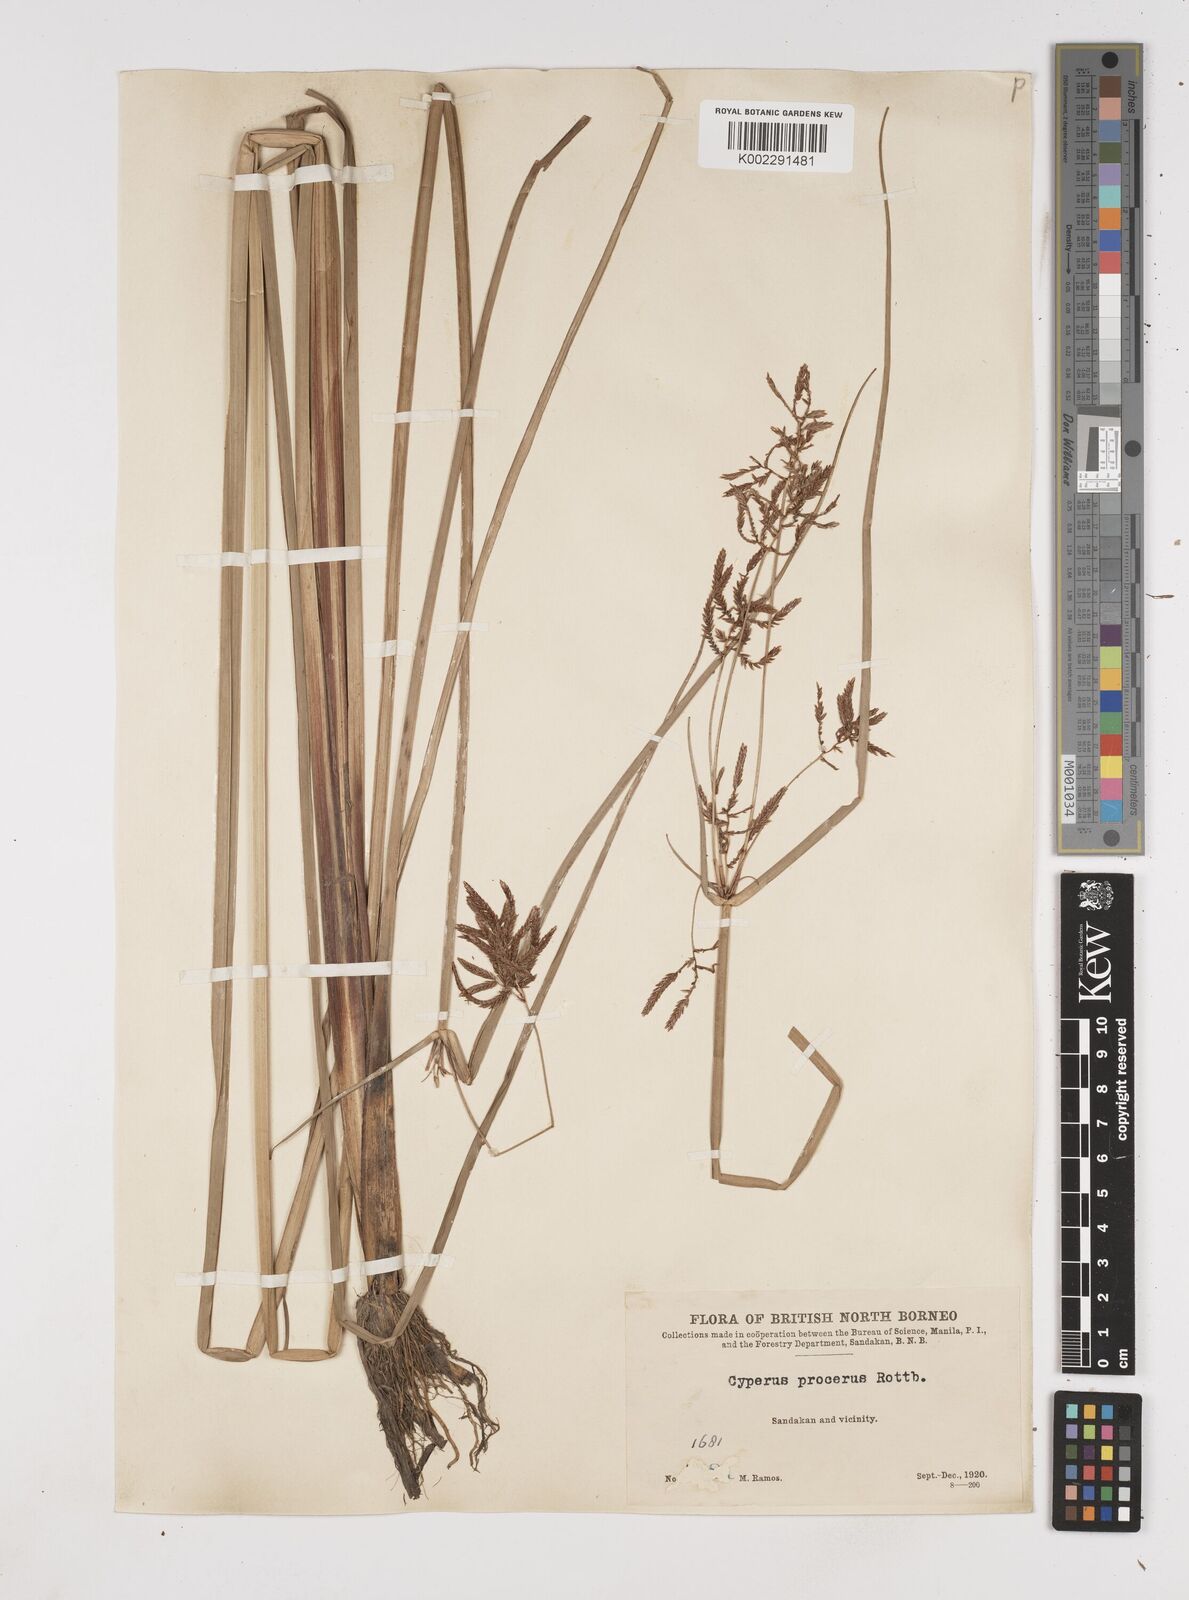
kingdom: Plantae
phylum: Tracheophyta
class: Liliopsida
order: Poales
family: Cyperaceae
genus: Cyperus
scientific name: Cyperus procerus
